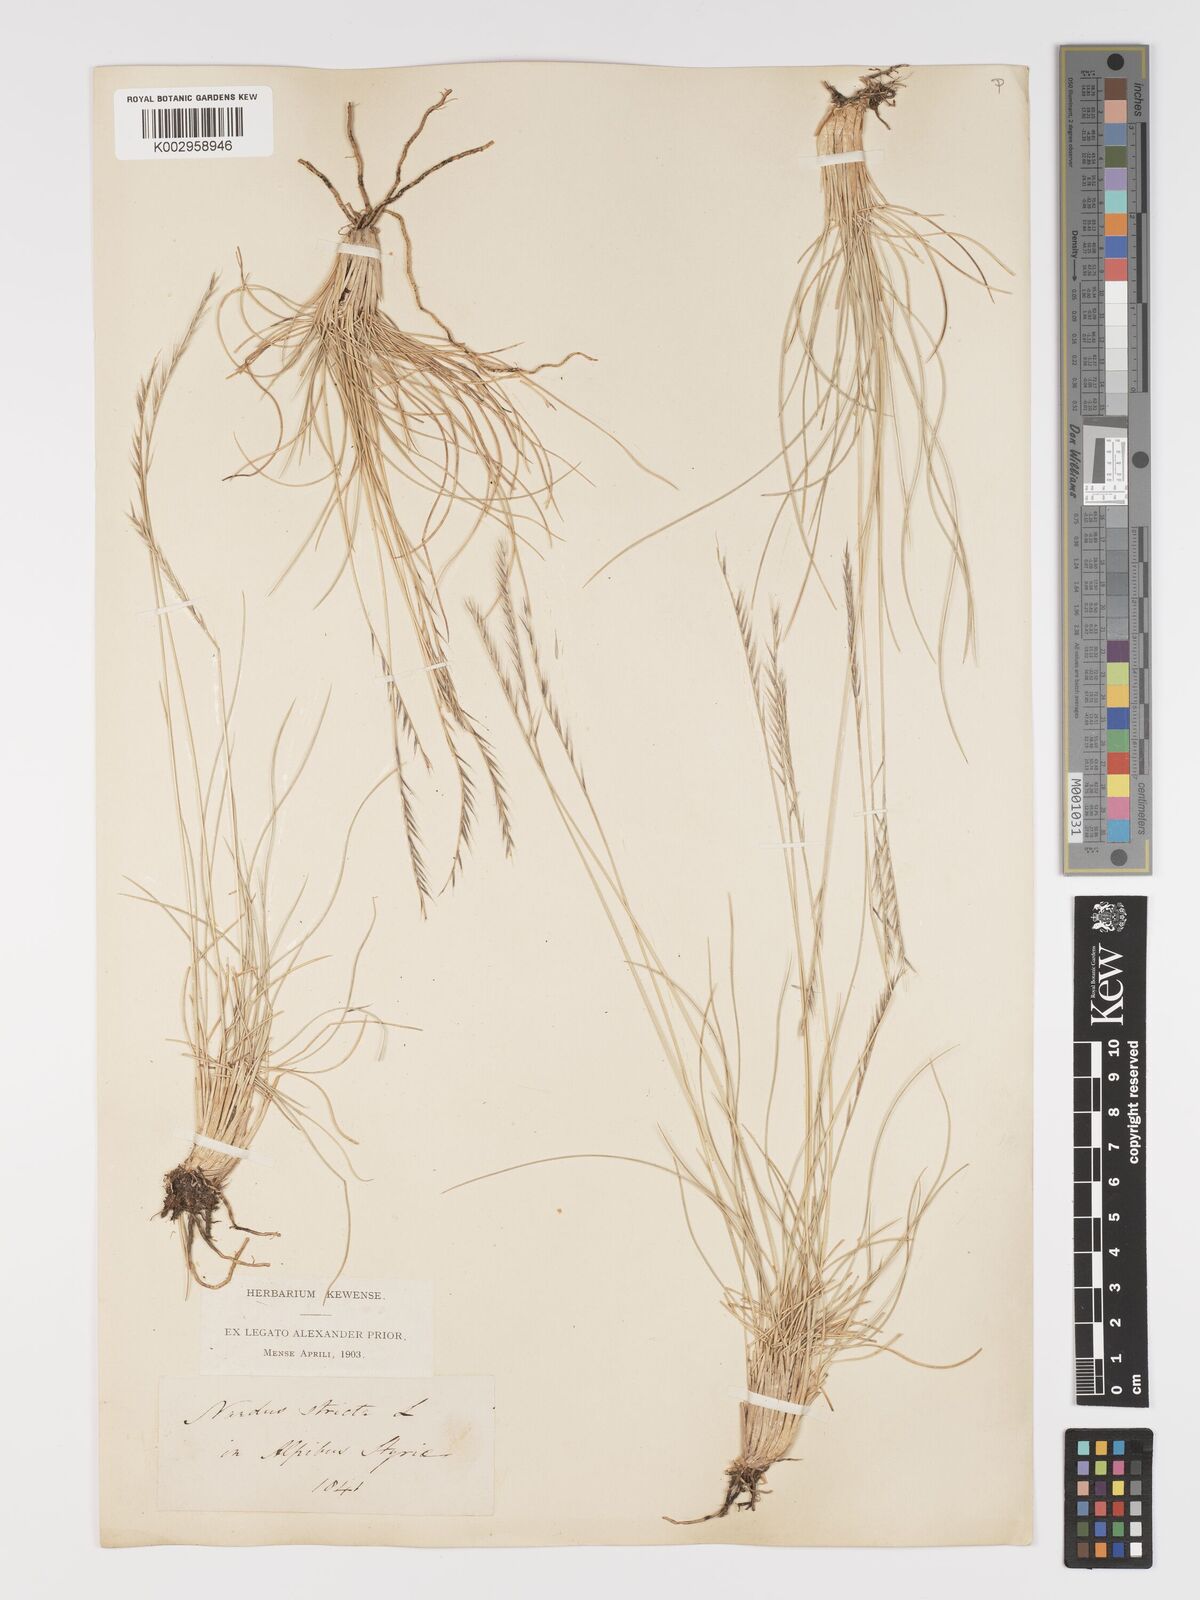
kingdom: Plantae
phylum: Tracheophyta
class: Liliopsida
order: Poales
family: Poaceae
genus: Nardus
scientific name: Nardus stricta
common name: Mat-grass
